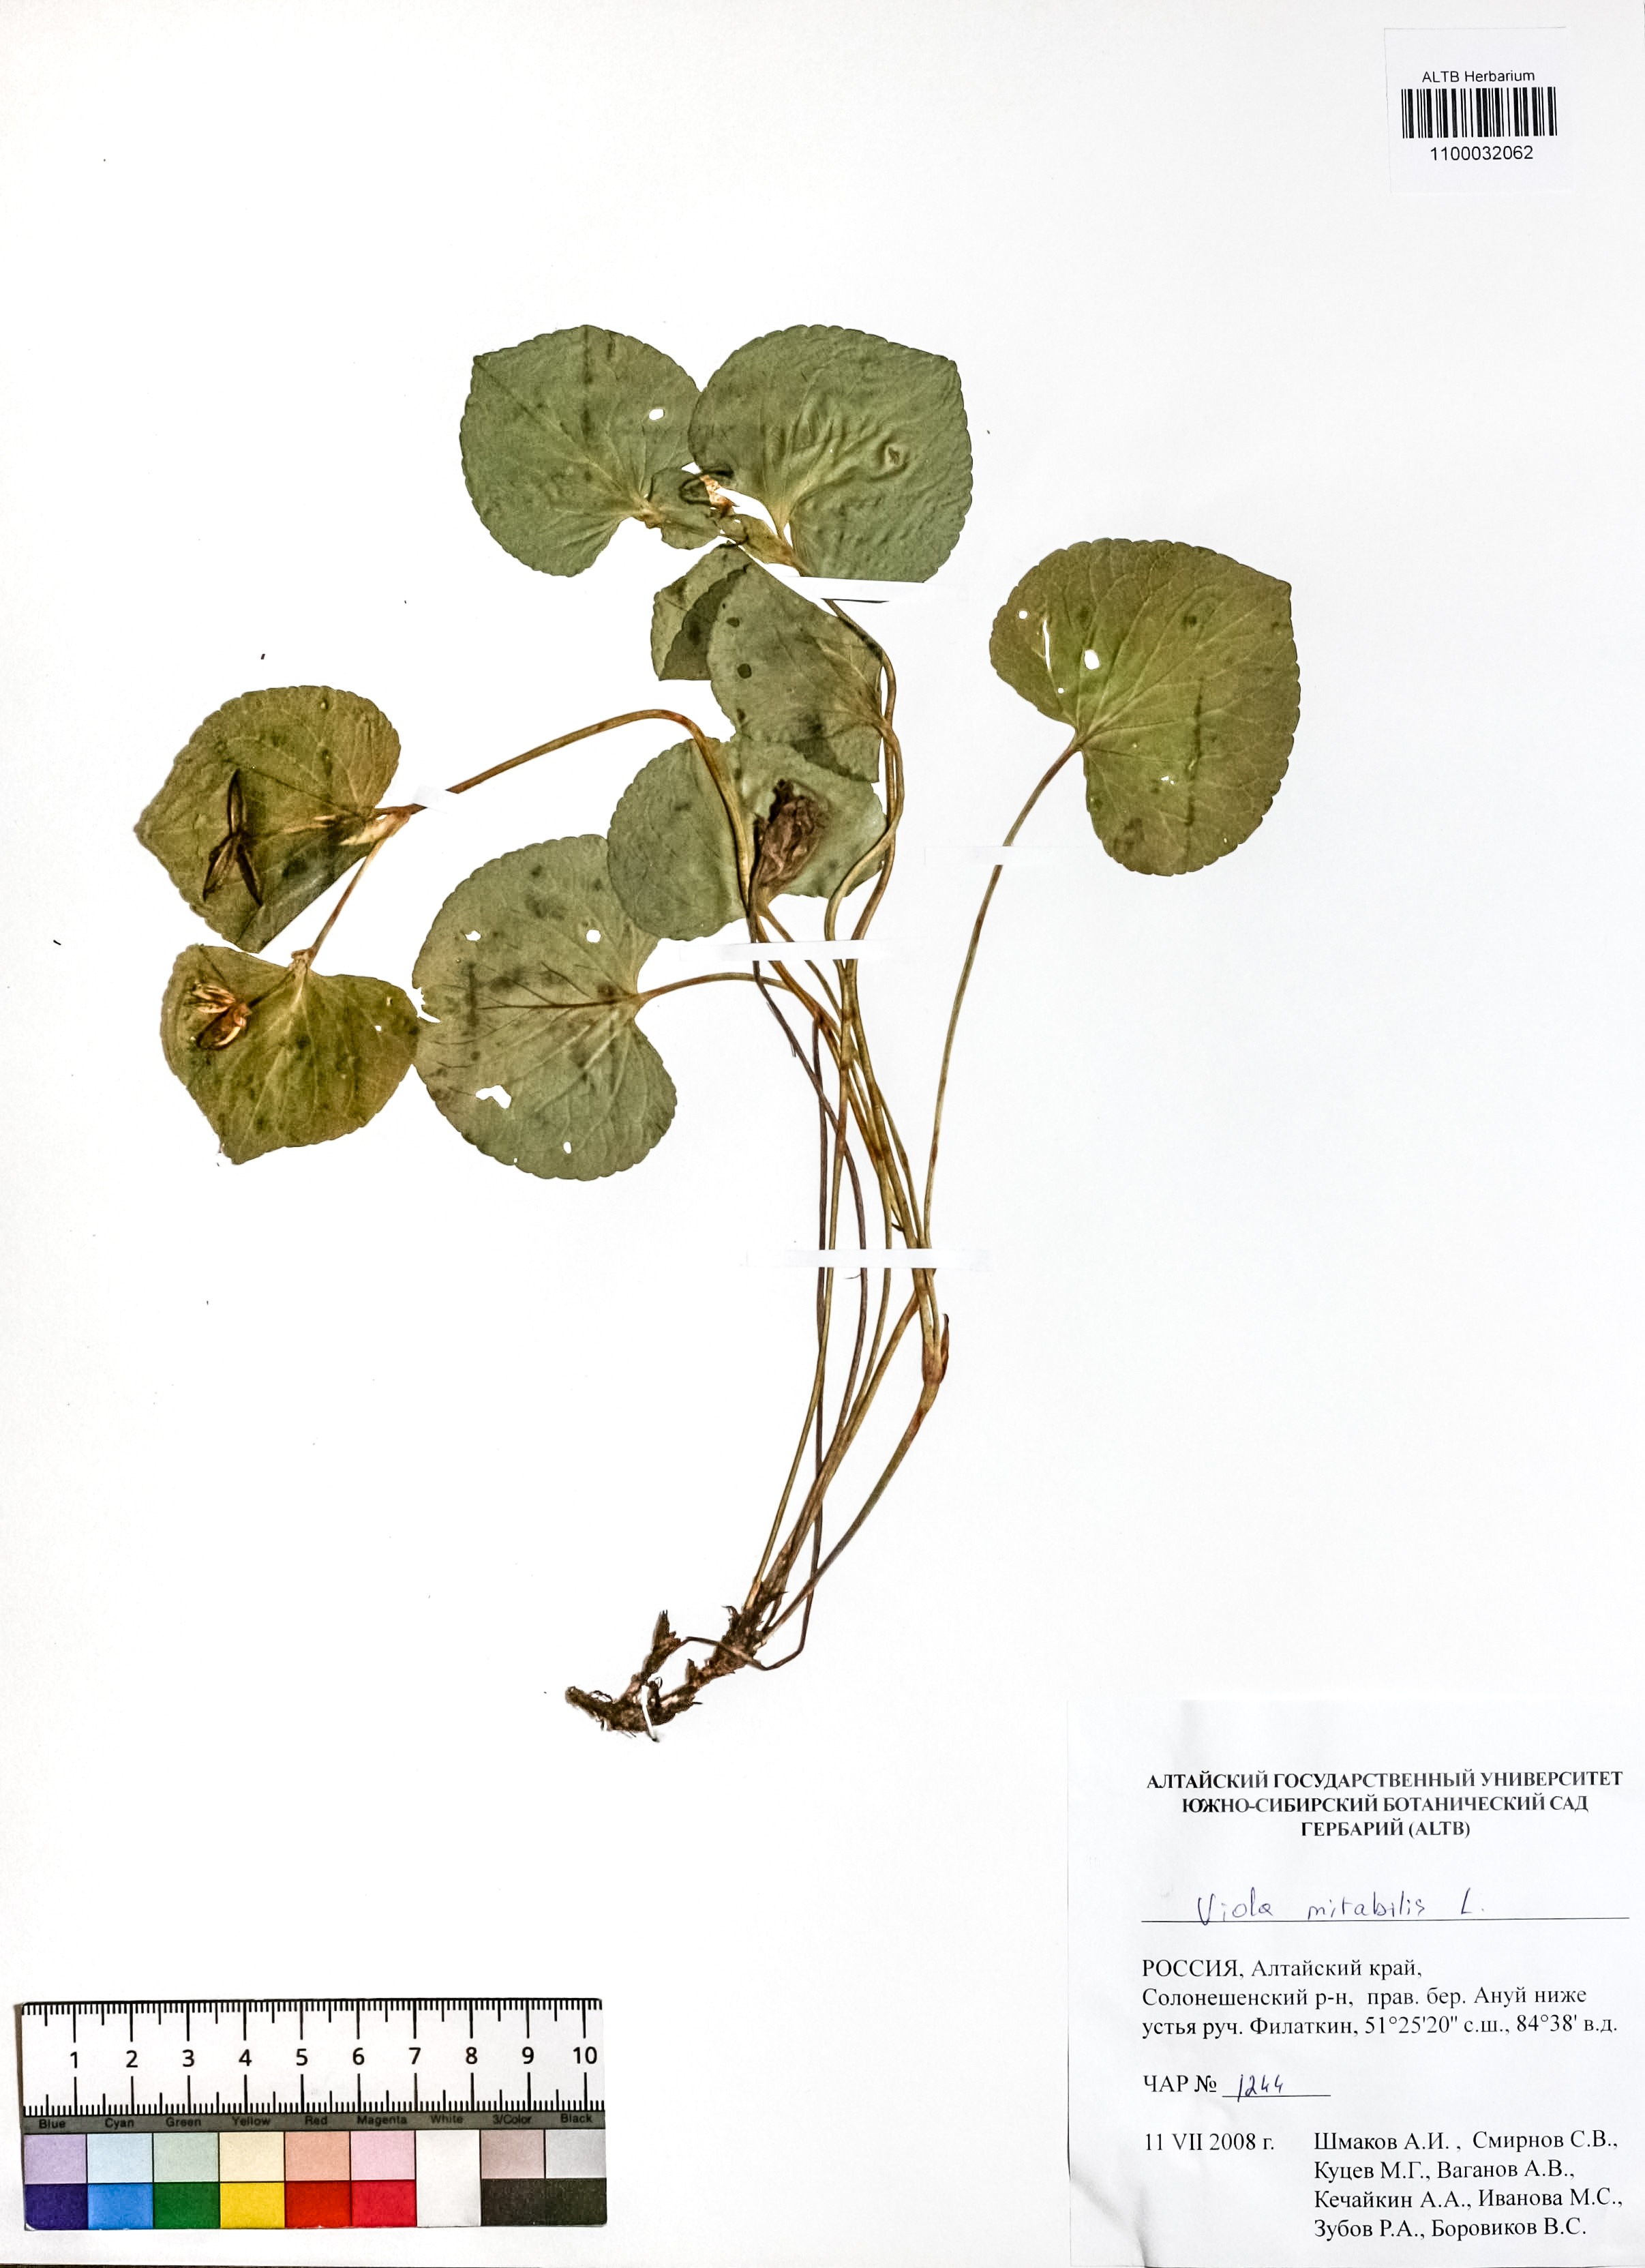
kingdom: Plantae
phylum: Tracheophyta
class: Magnoliopsida
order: Malpighiales
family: Violaceae
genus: Viola
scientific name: Viola mirabilis
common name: Wonder violet
